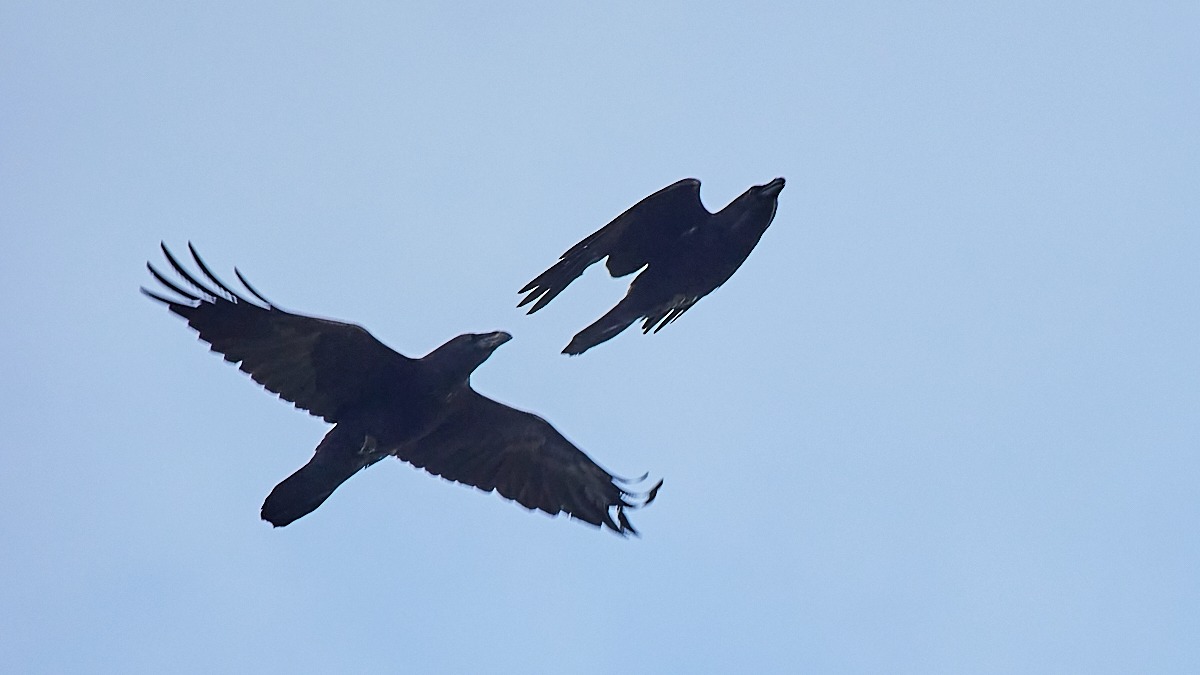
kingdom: Animalia
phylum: Chordata
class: Aves
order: Passeriformes
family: Corvidae
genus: Corvus
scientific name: Corvus corax
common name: Ravn
